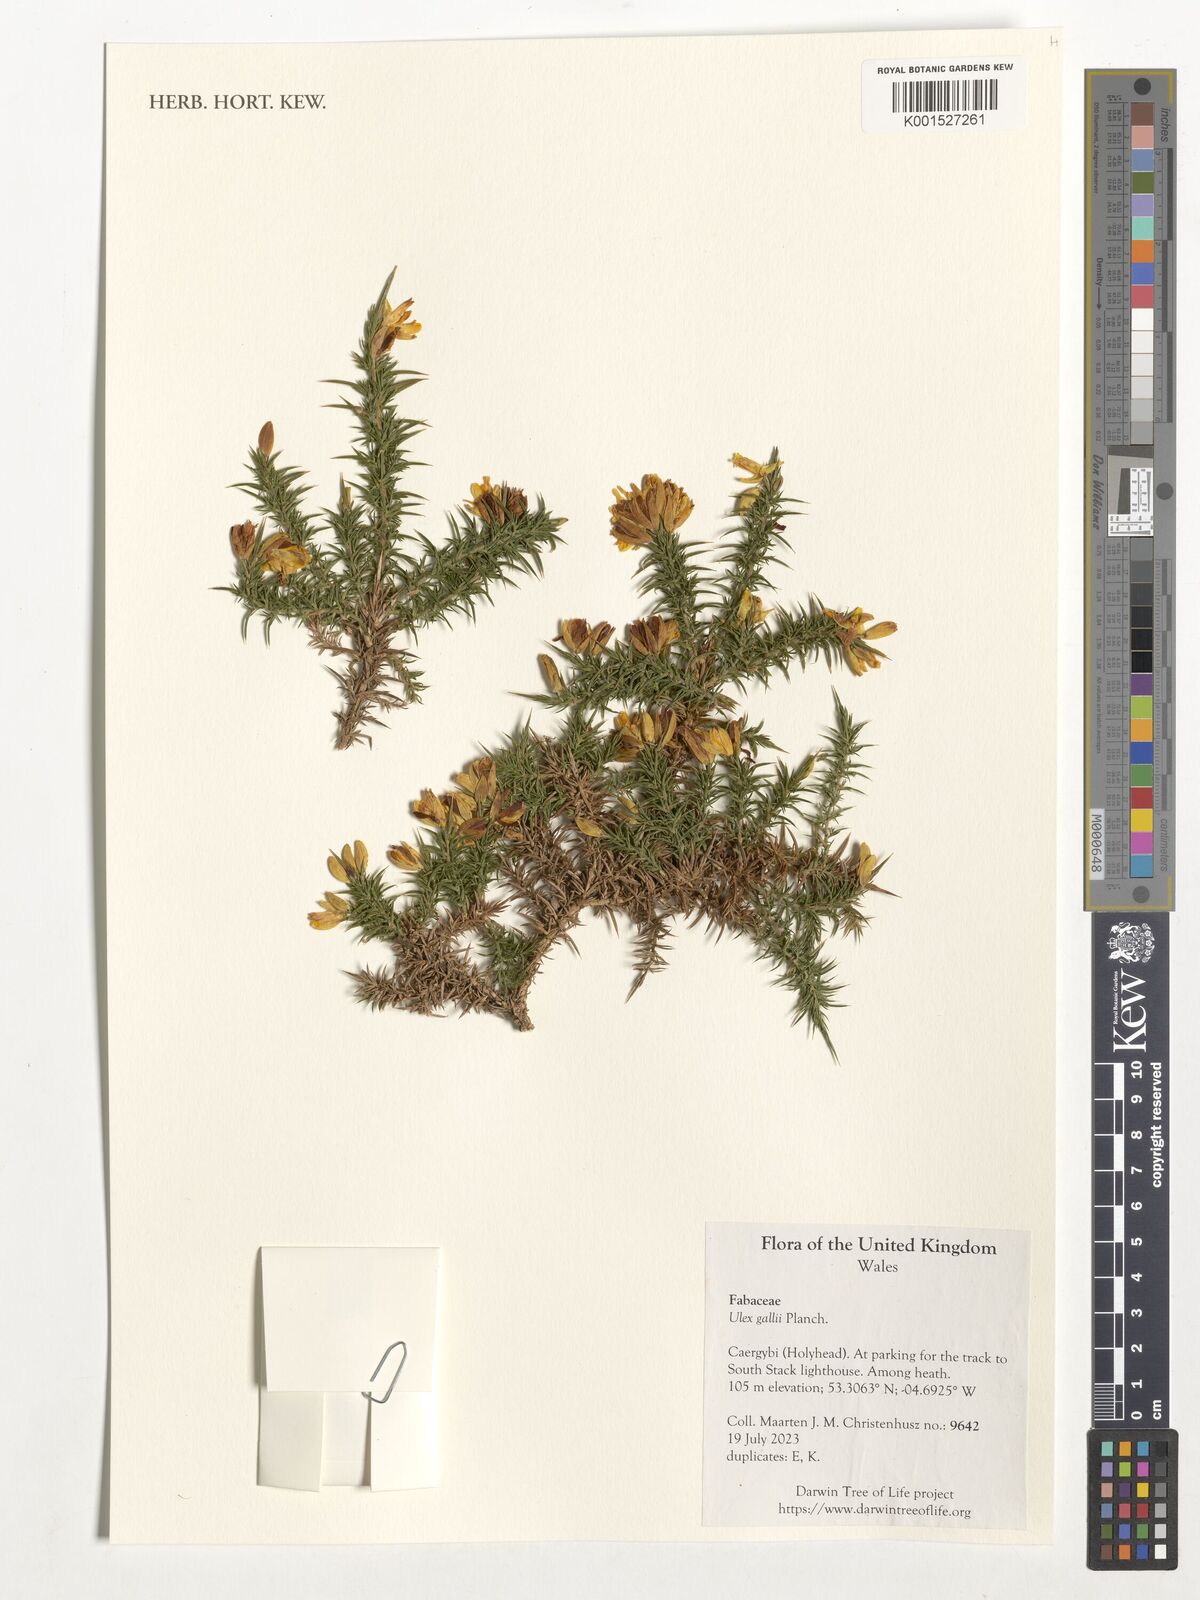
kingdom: Plantae
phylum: Tracheophyta
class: Magnoliopsida
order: Fabales
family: Fabaceae
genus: Ulex
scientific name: Ulex gallii
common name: Western gorse
